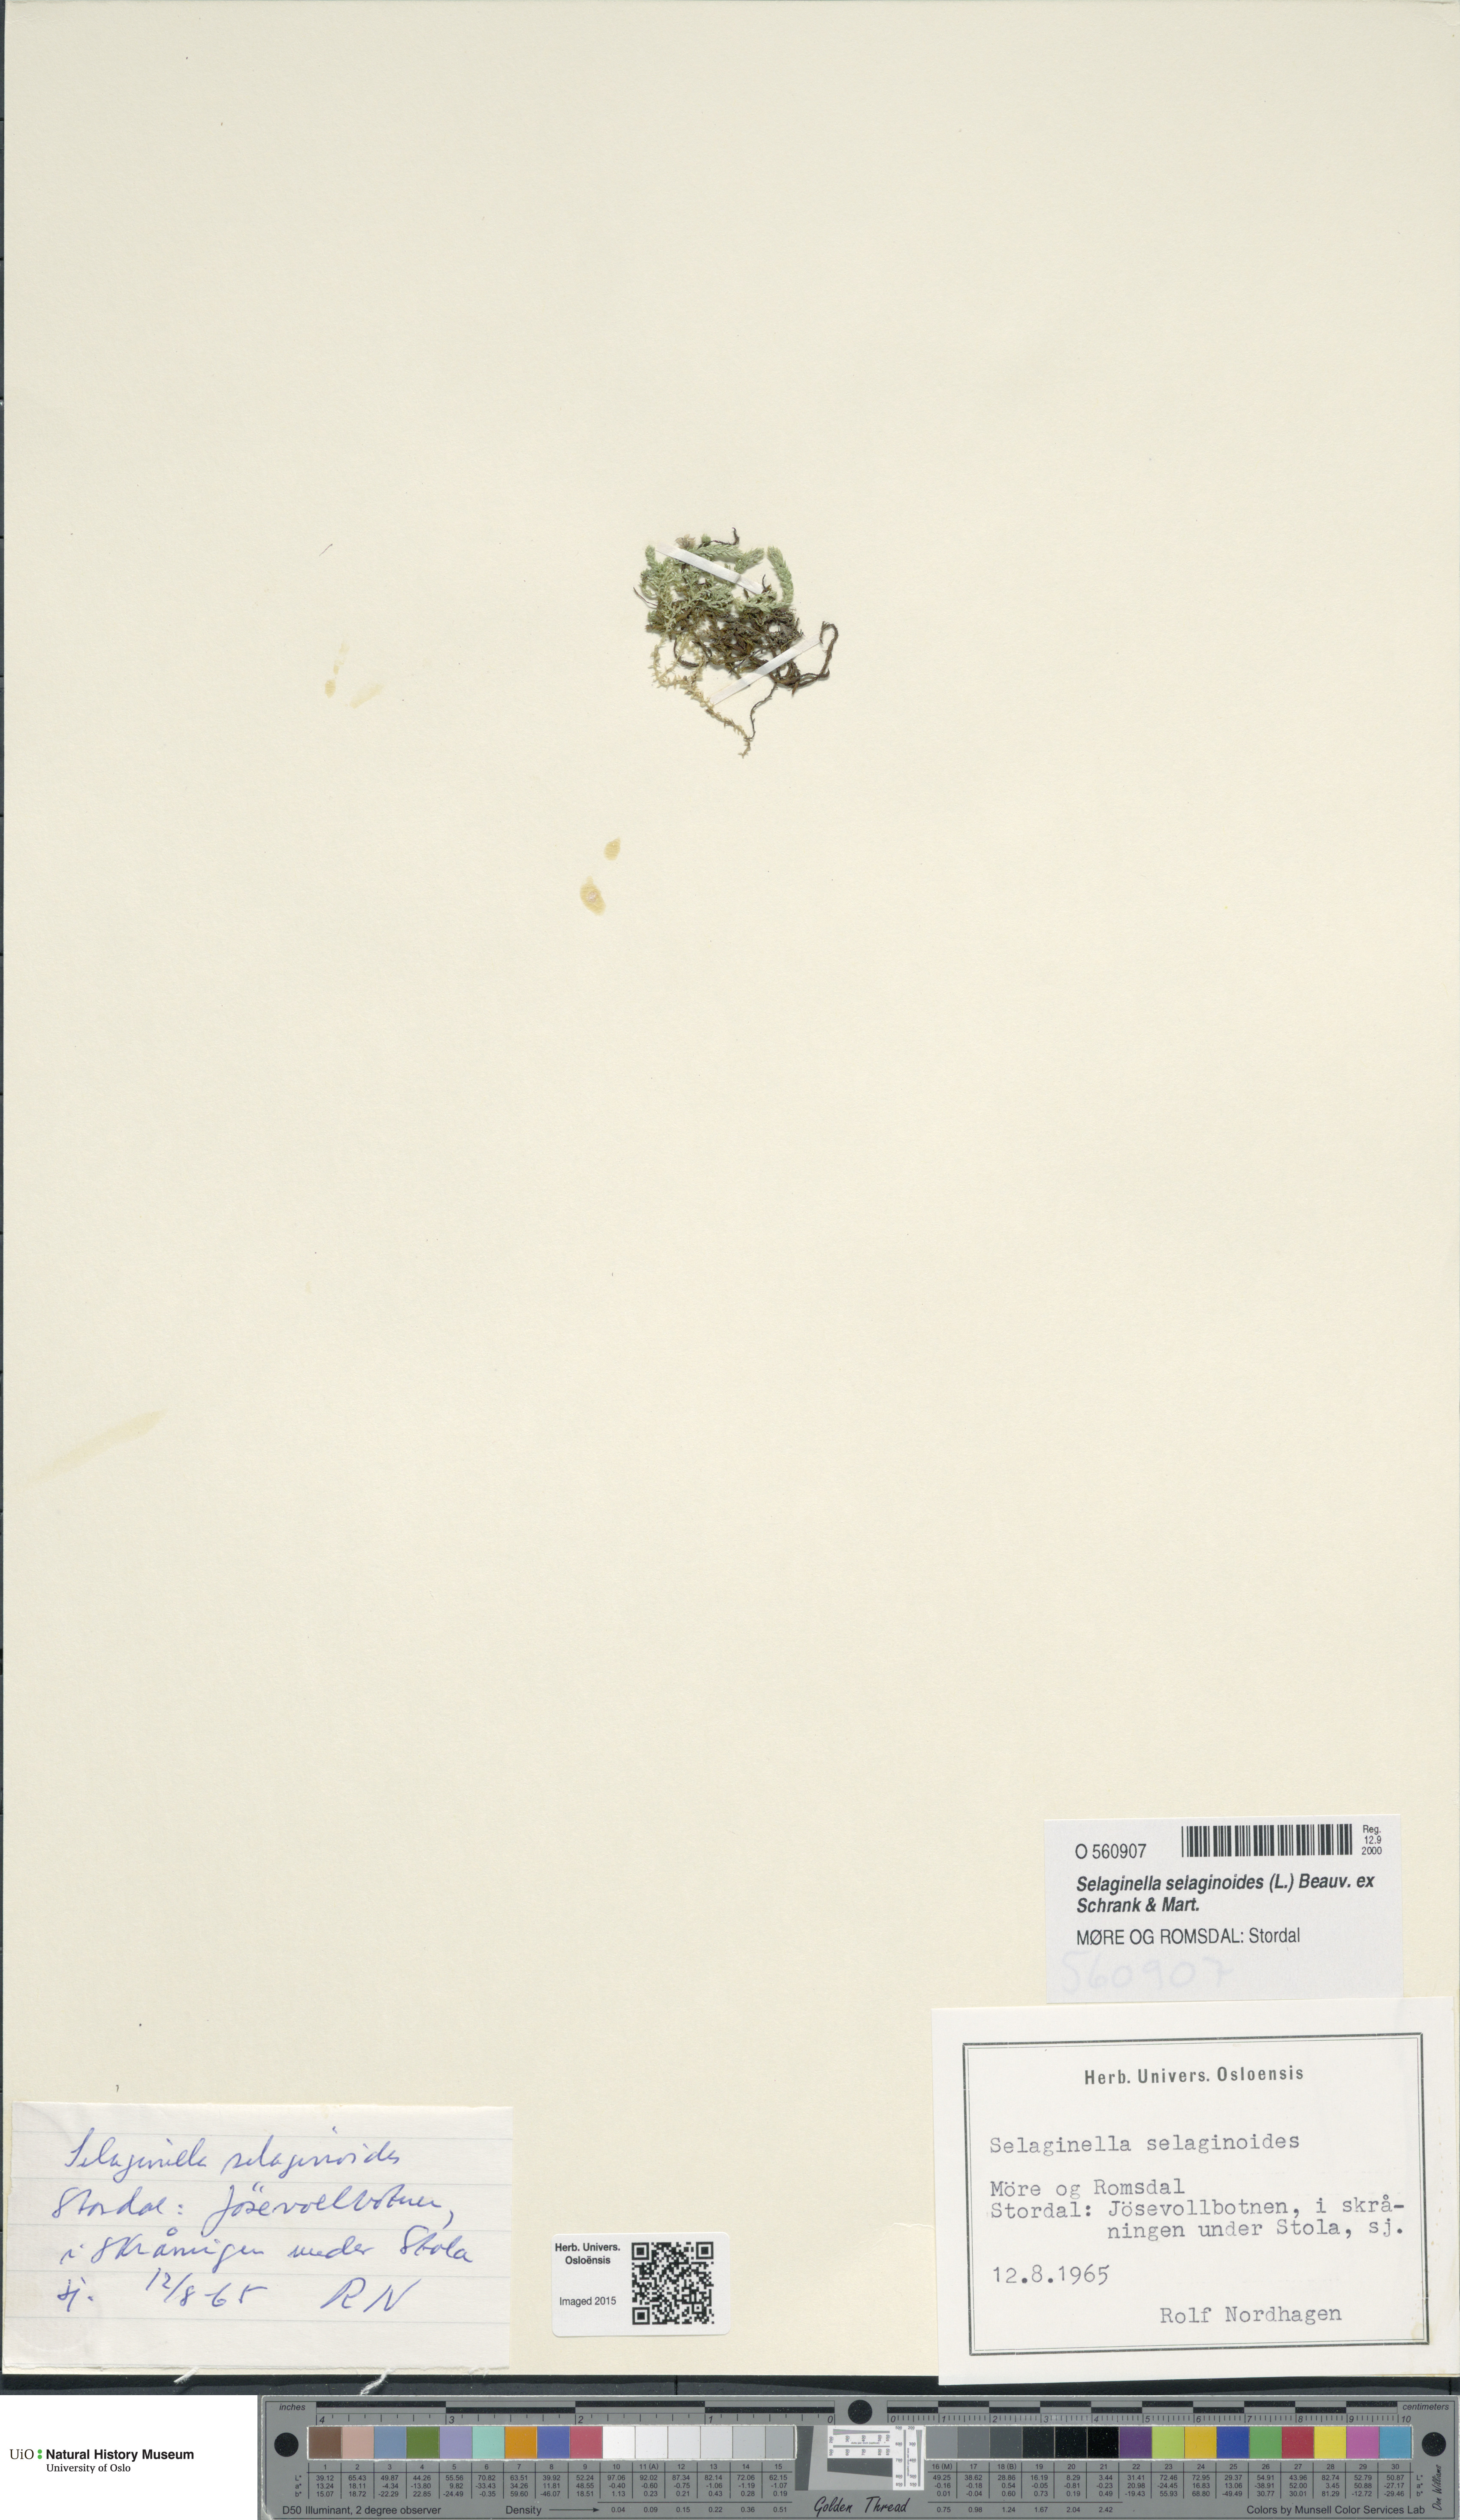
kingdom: Plantae
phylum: Tracheophyta
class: Lycopodiopsida
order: Selaginellales
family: Selaginellaceae
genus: Selaginella
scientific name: Selaginella selaginoides
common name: Prickly mountain-moss
